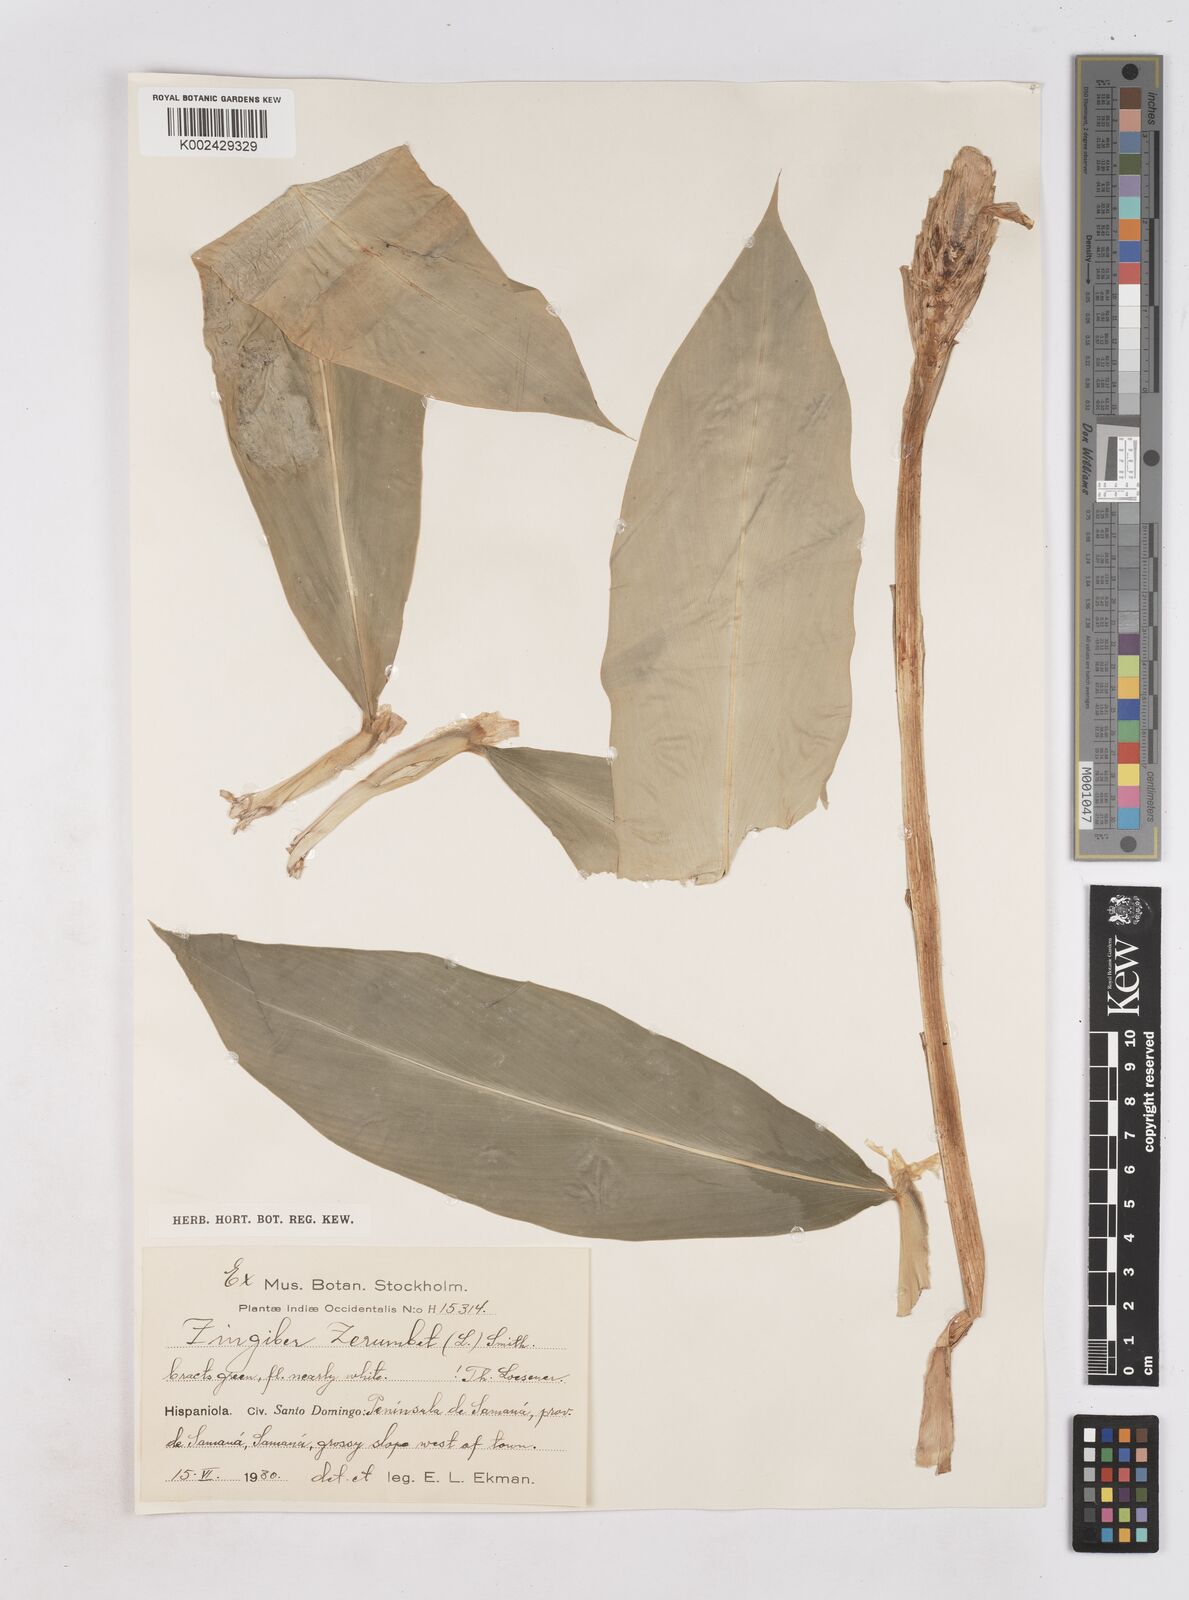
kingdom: Plantae
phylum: Tracheophyta
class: Liliopsida
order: Zingiberales
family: Zingiberaceae
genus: Zingiber
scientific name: Zingiber zerumbet
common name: Bitter ginger
